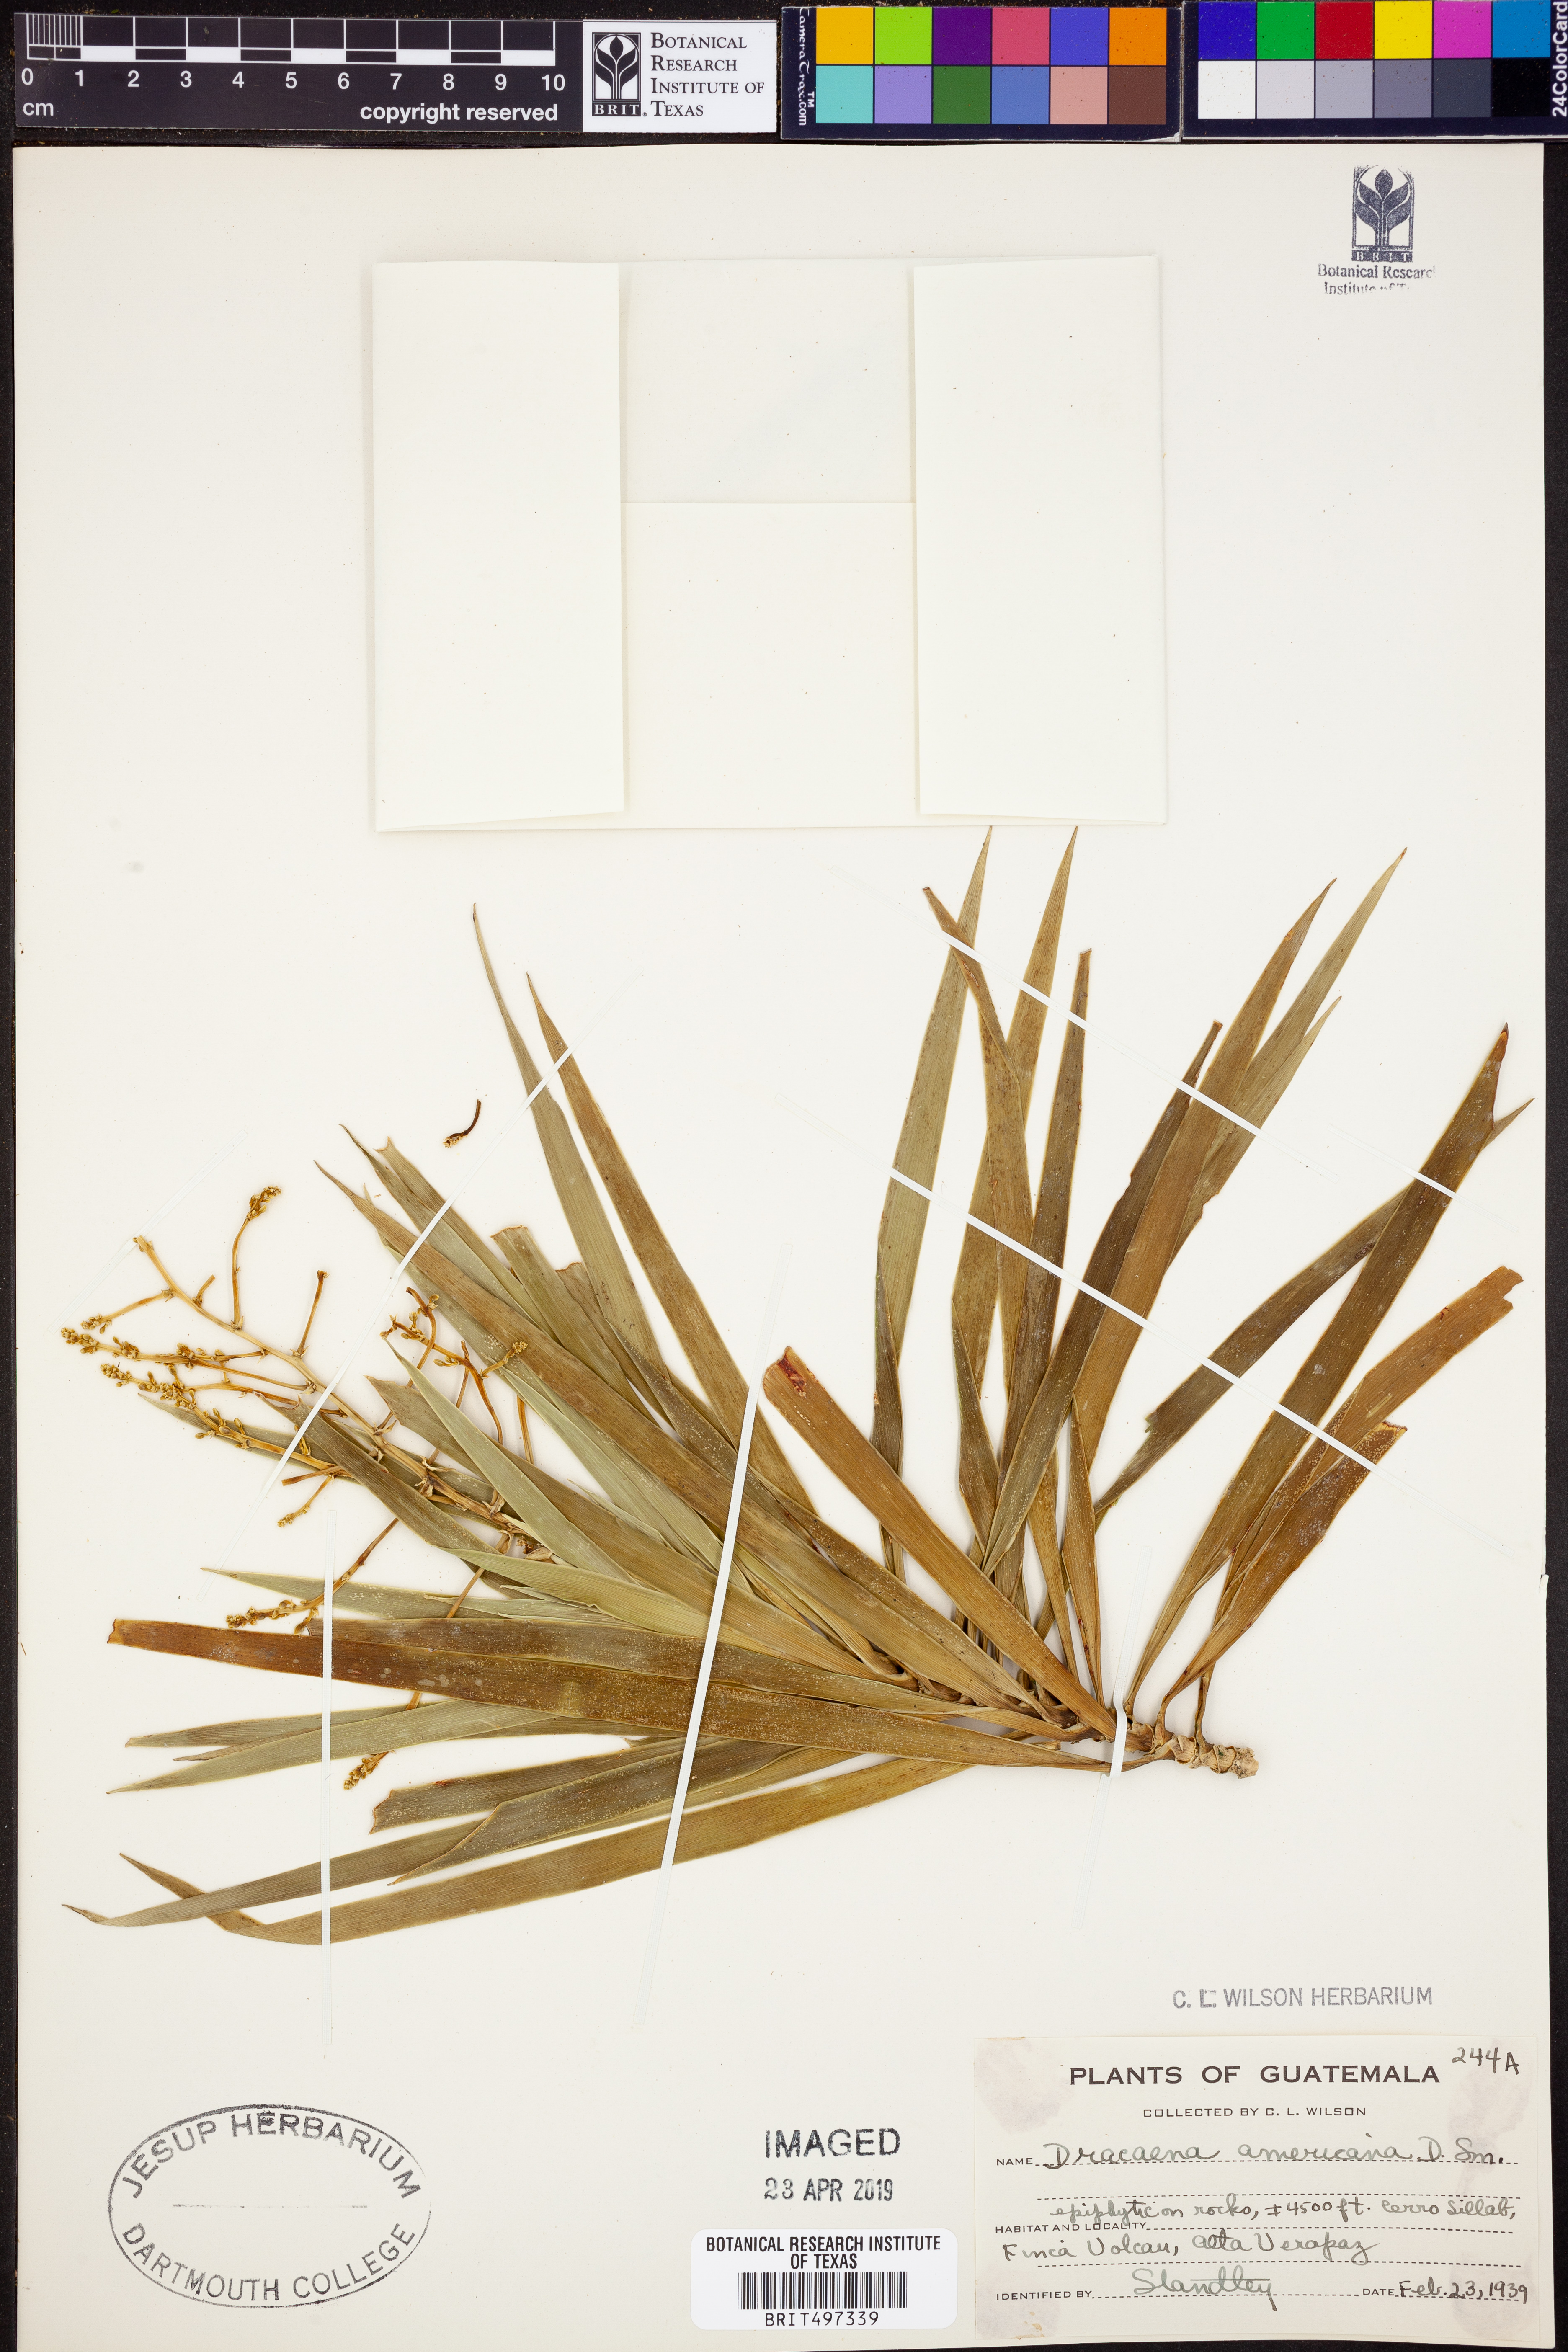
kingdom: Plantae
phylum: Tracheophyta
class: Liliopsida
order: Asparagales
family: Asparagaceae
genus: Dracaena
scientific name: Dracaena ghiesbreghtii
